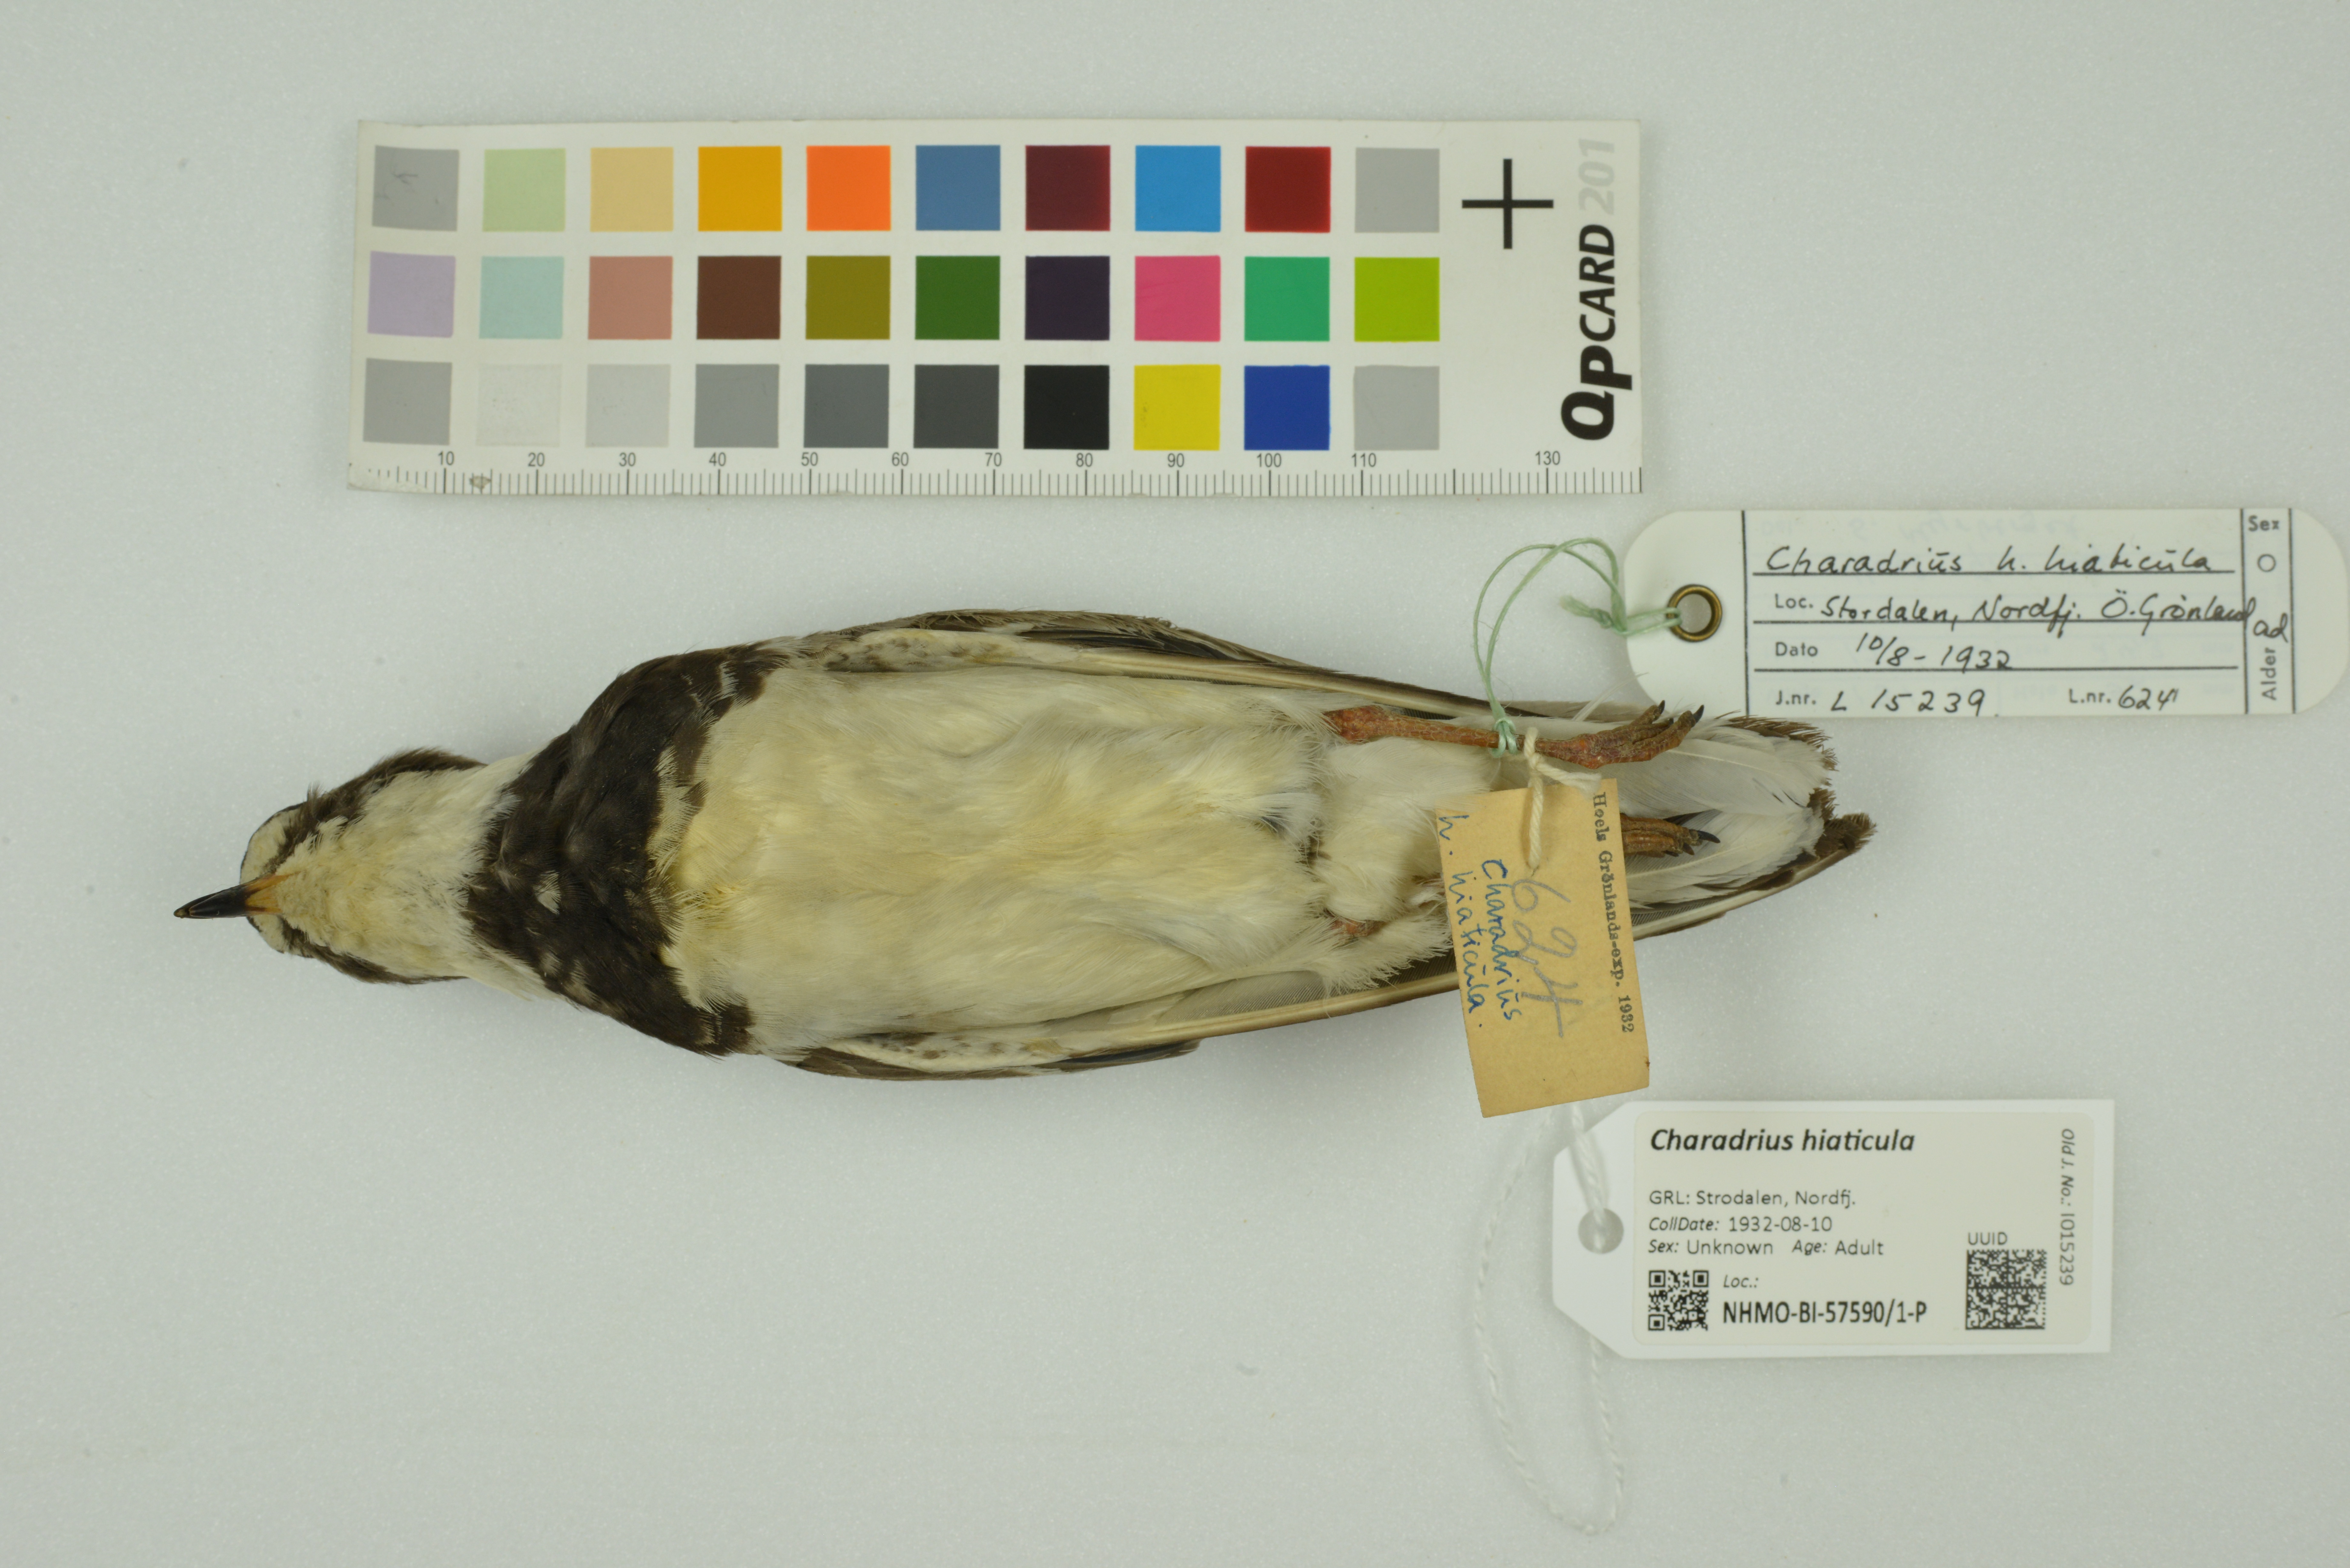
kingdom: Animalia
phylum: Chordata
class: Aves
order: Charadriiformes
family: Charadriidae
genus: Charadrius
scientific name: Charadrius hiaticula
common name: Common ringed plover
